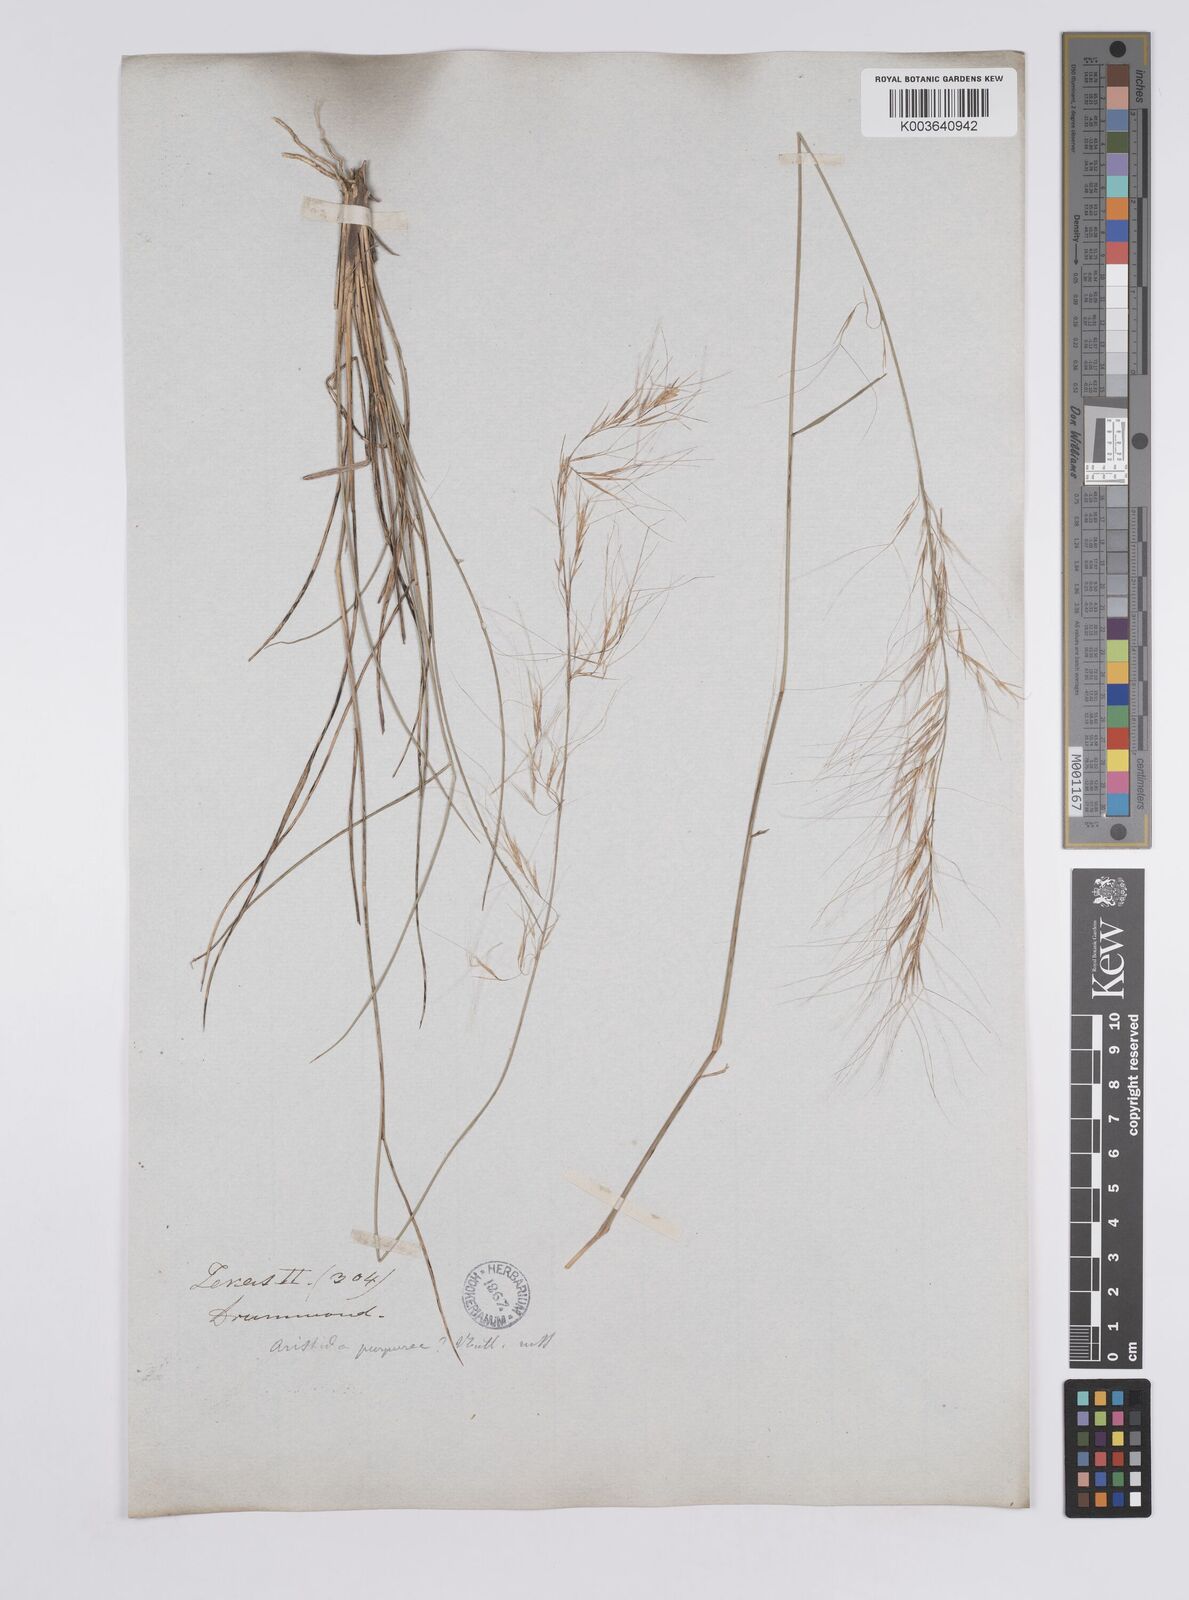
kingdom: Plantae
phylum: Tracheophyta
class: Liliopsida
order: Poales
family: Poaceae
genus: Aristida
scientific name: Aristida purpurea
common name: Purple threeawn
